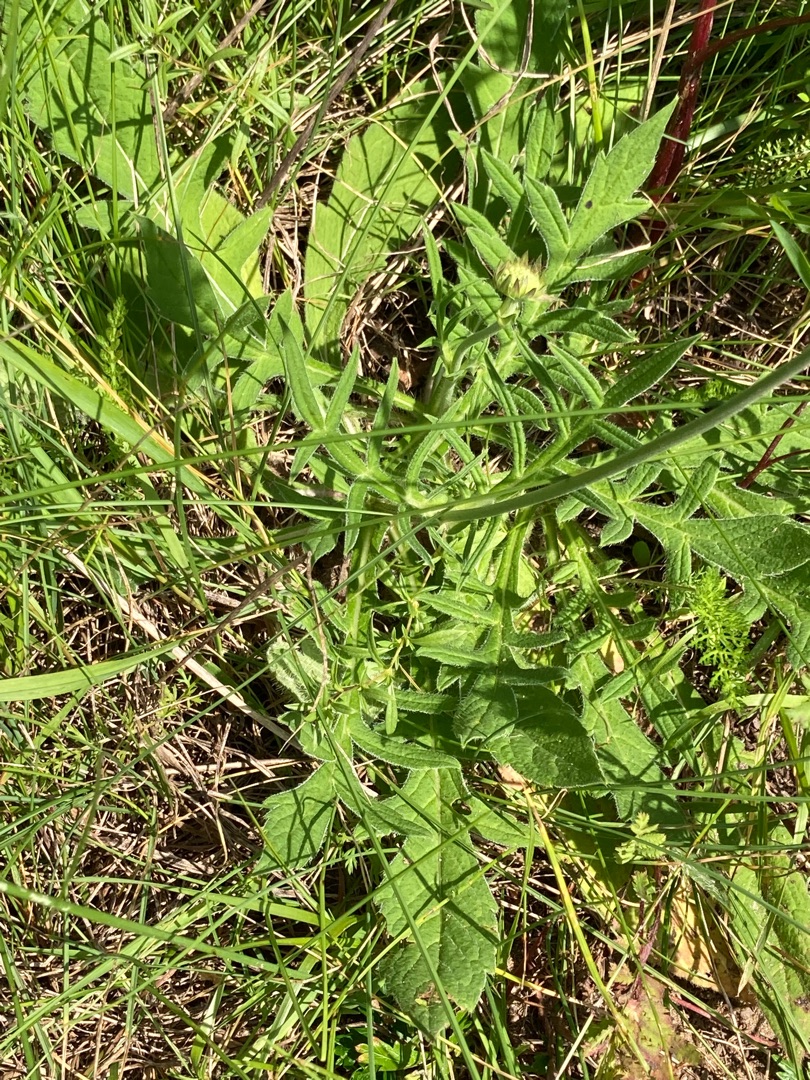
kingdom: Plantae
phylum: Tracheophyta
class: Magnoliopsida
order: Dipsacales
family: Caprifoliaceae
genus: Knautia
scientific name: Knautia arvensis
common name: Blåhat
